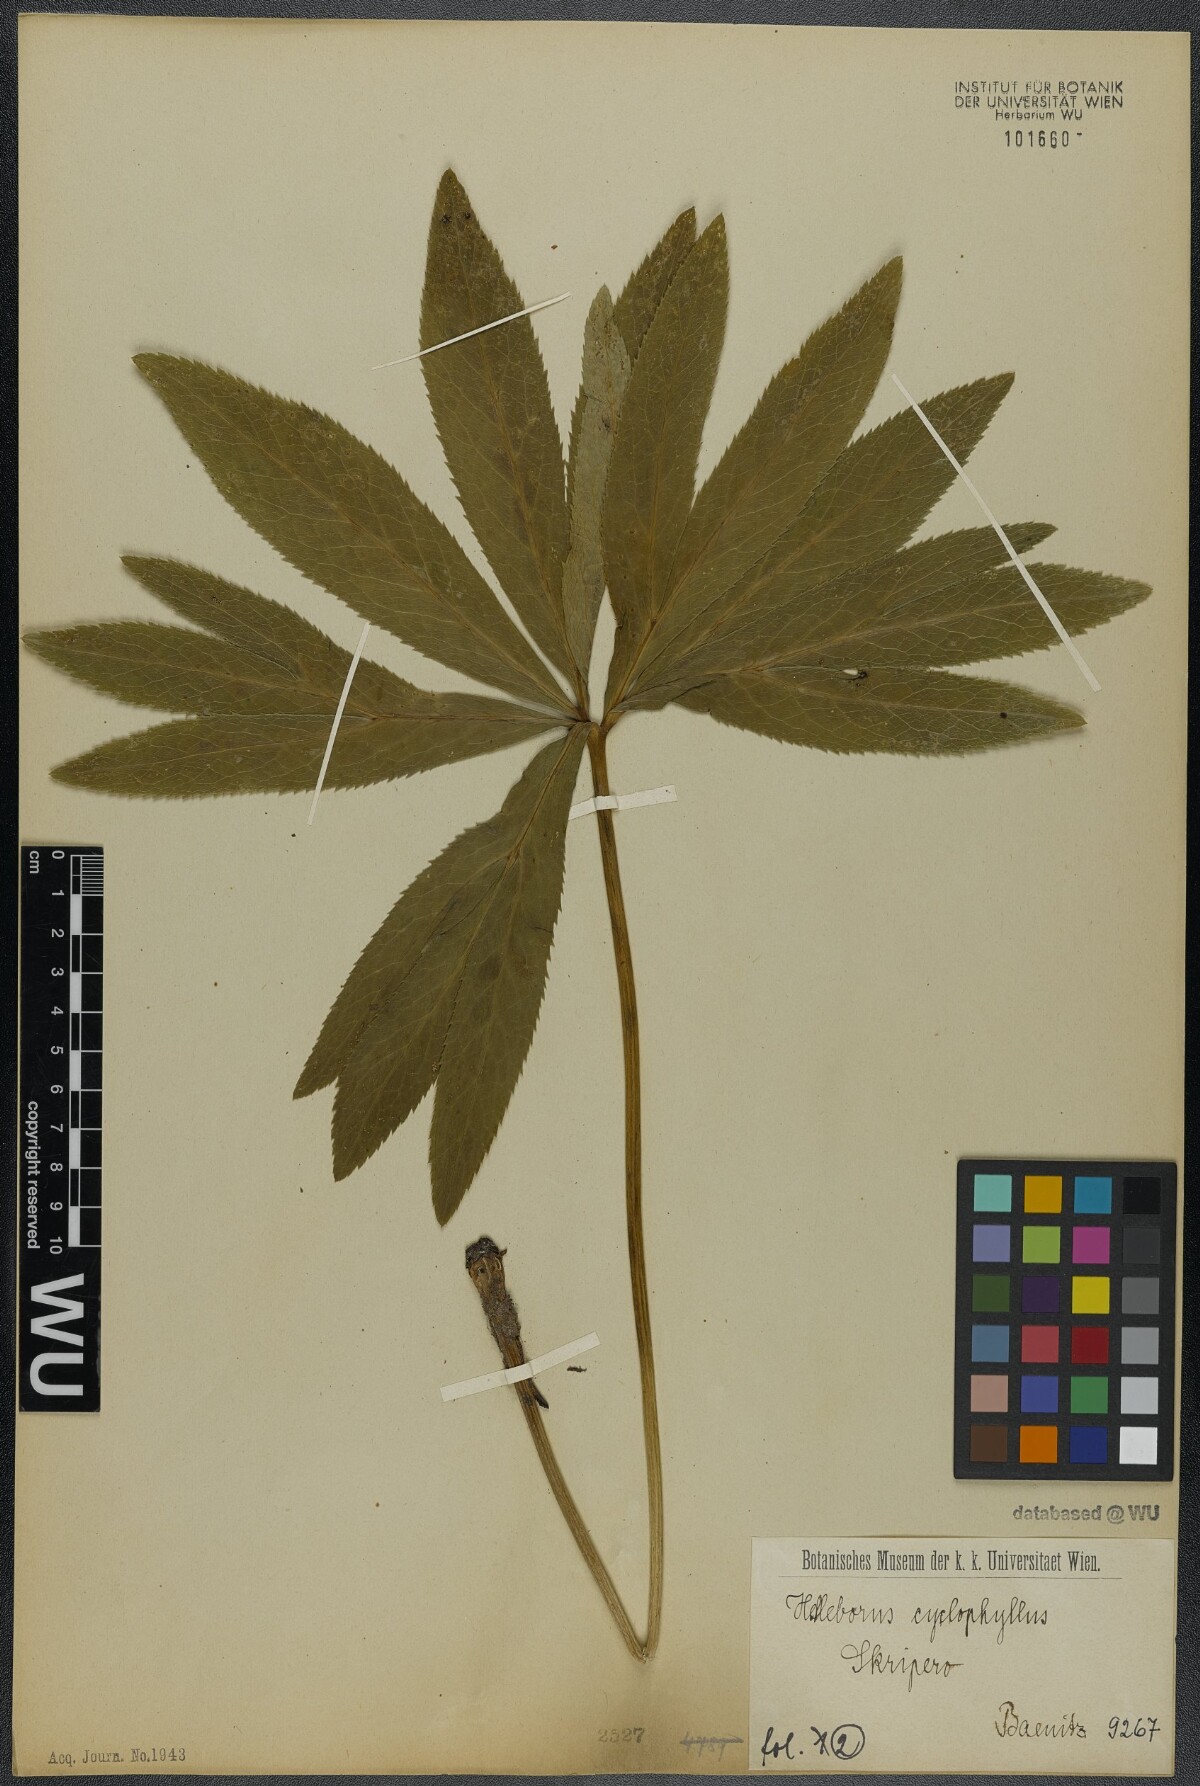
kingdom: Plantae
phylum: Tracheophyta
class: Magnoliopsida
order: Ranunculales
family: Ranunculaceae
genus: Helleborus
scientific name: Helleborus odorus
